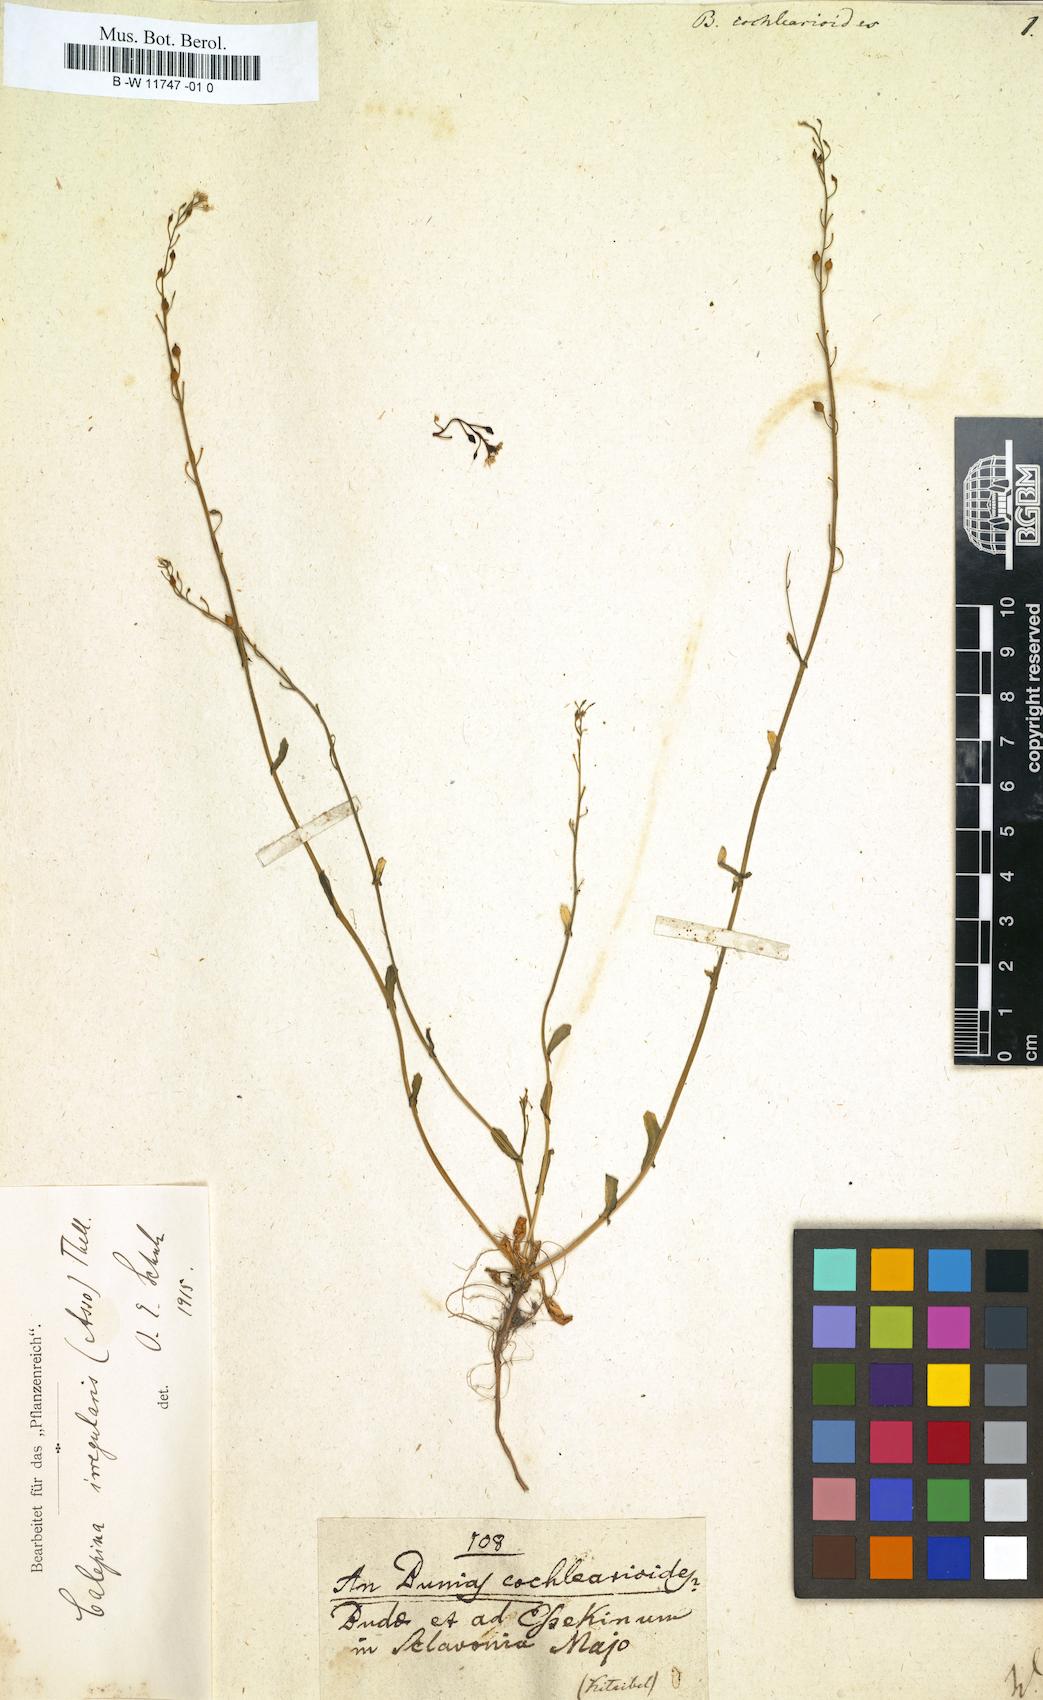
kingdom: Plantae
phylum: Tracheophyta
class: Magnoliopsida
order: Brassicales
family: Brassicaceae
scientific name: Brassicaceae
